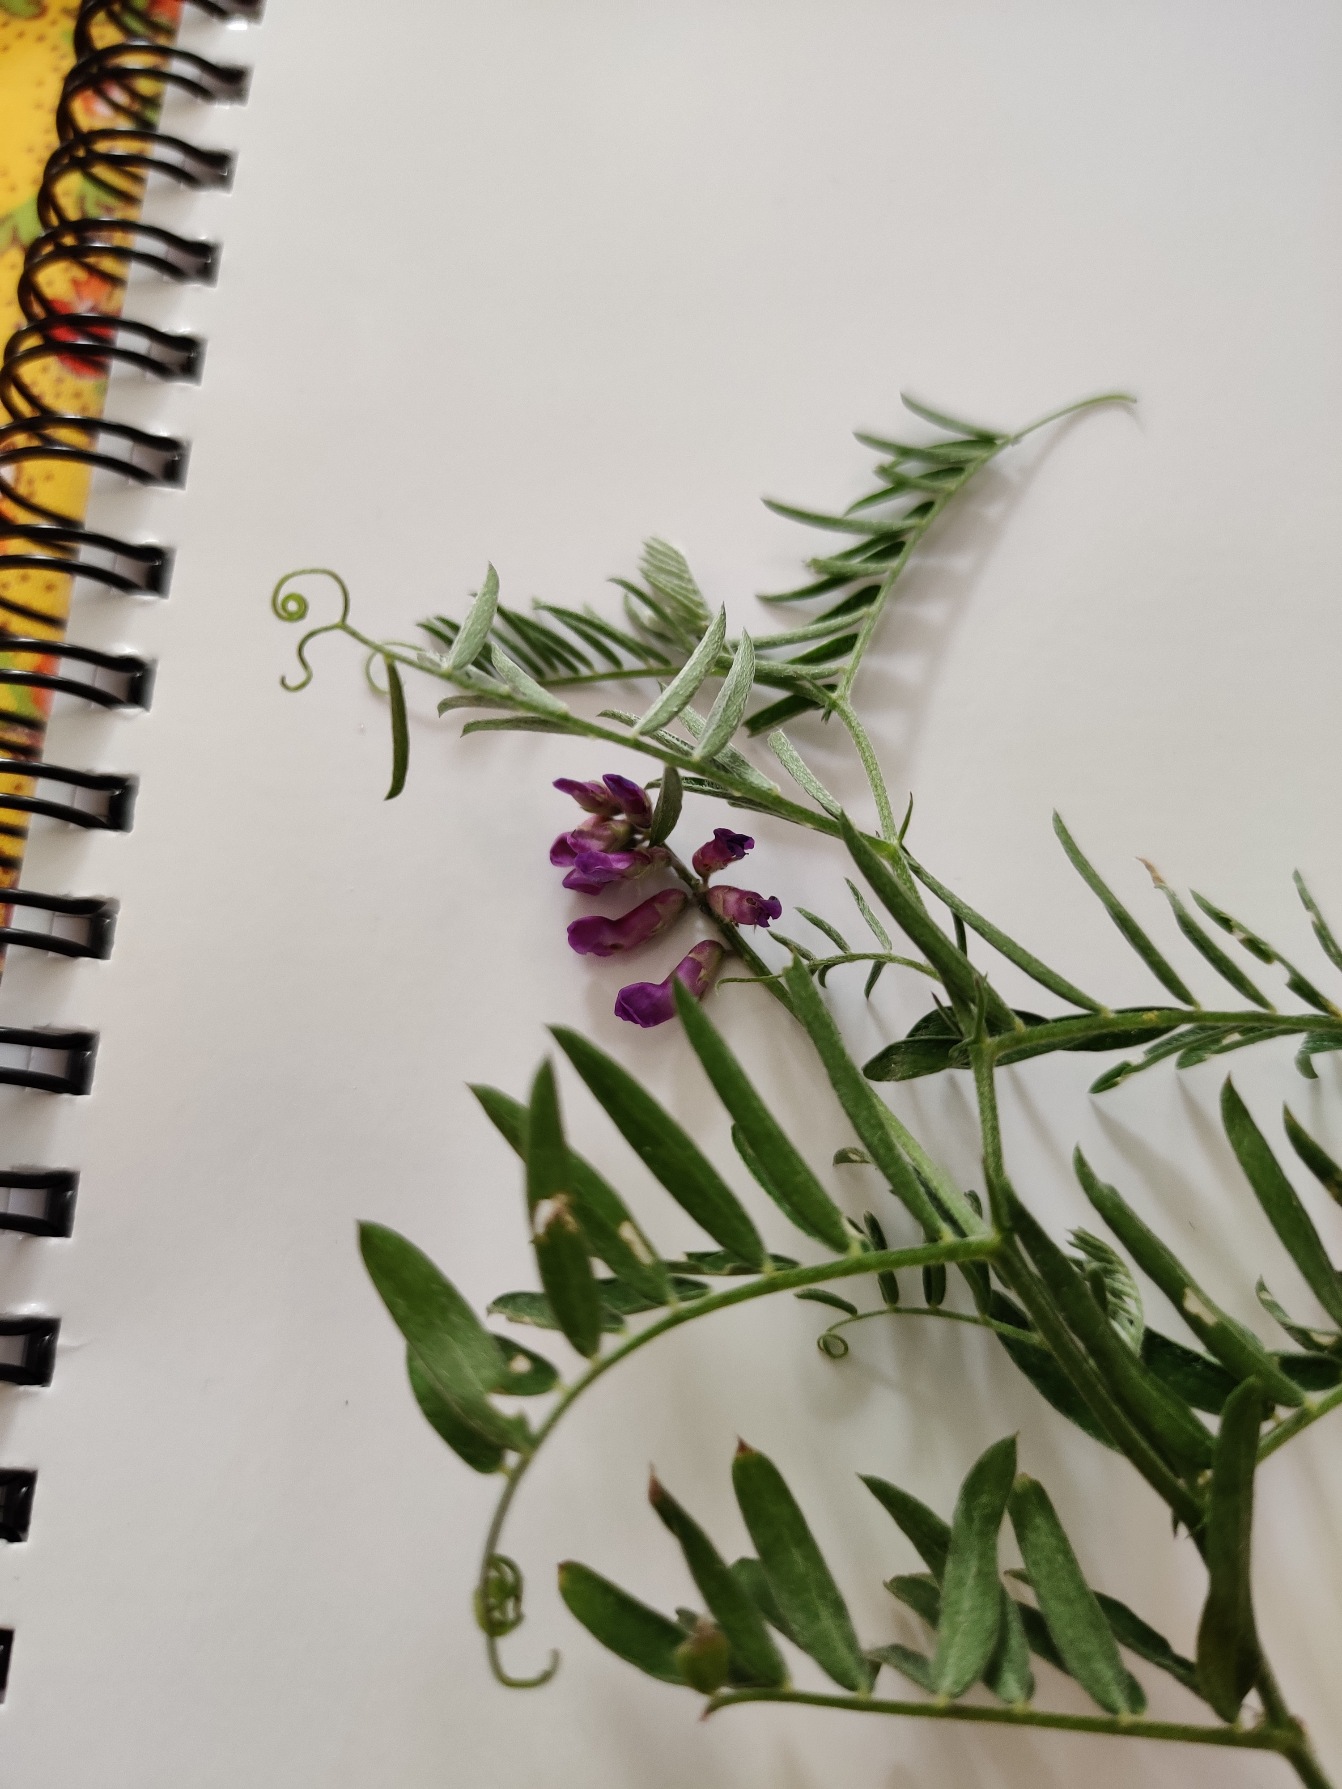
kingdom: Plantae
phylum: Tracheophyta
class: Magnoliopsida
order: Fabales
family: Fabaceae
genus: Vicia
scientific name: Vicia cracca
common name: Muse-vikke
